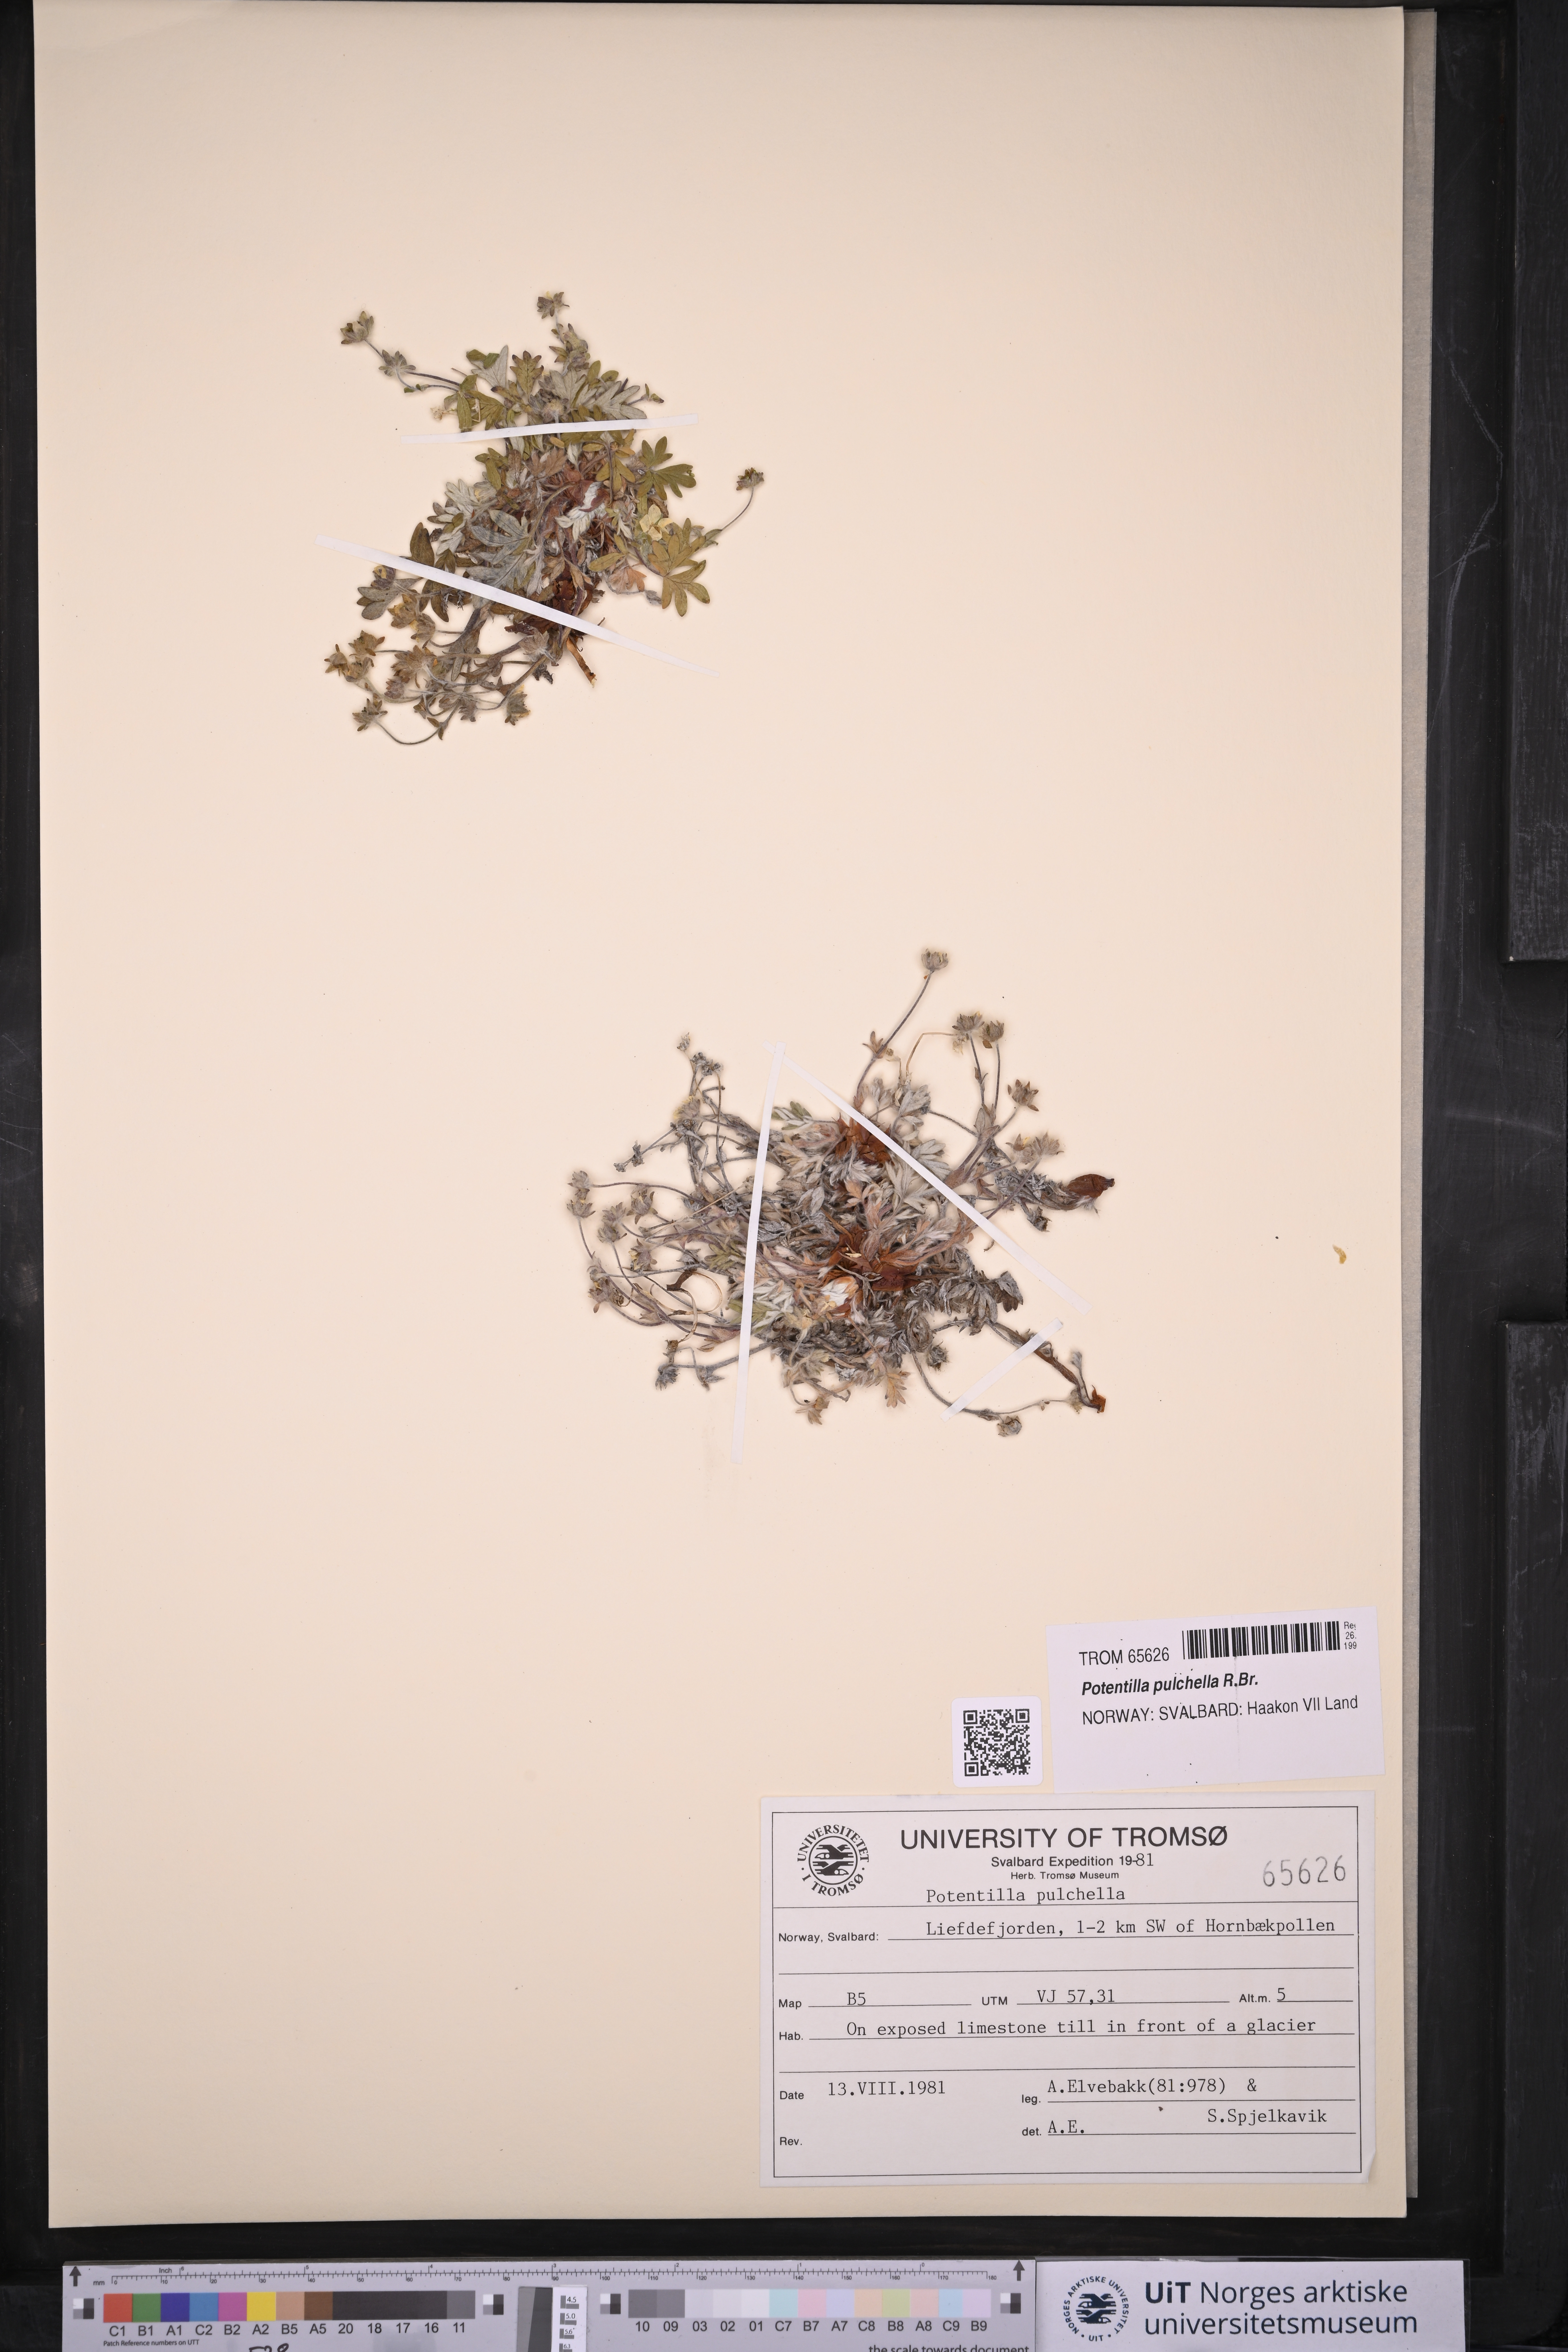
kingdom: Plantae
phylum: Tracheophyta
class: Magnoliopsida
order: Rosales
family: Rosaceae
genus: Potentilla
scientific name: Potentilla pulchella
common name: Pretty cinquefoil
